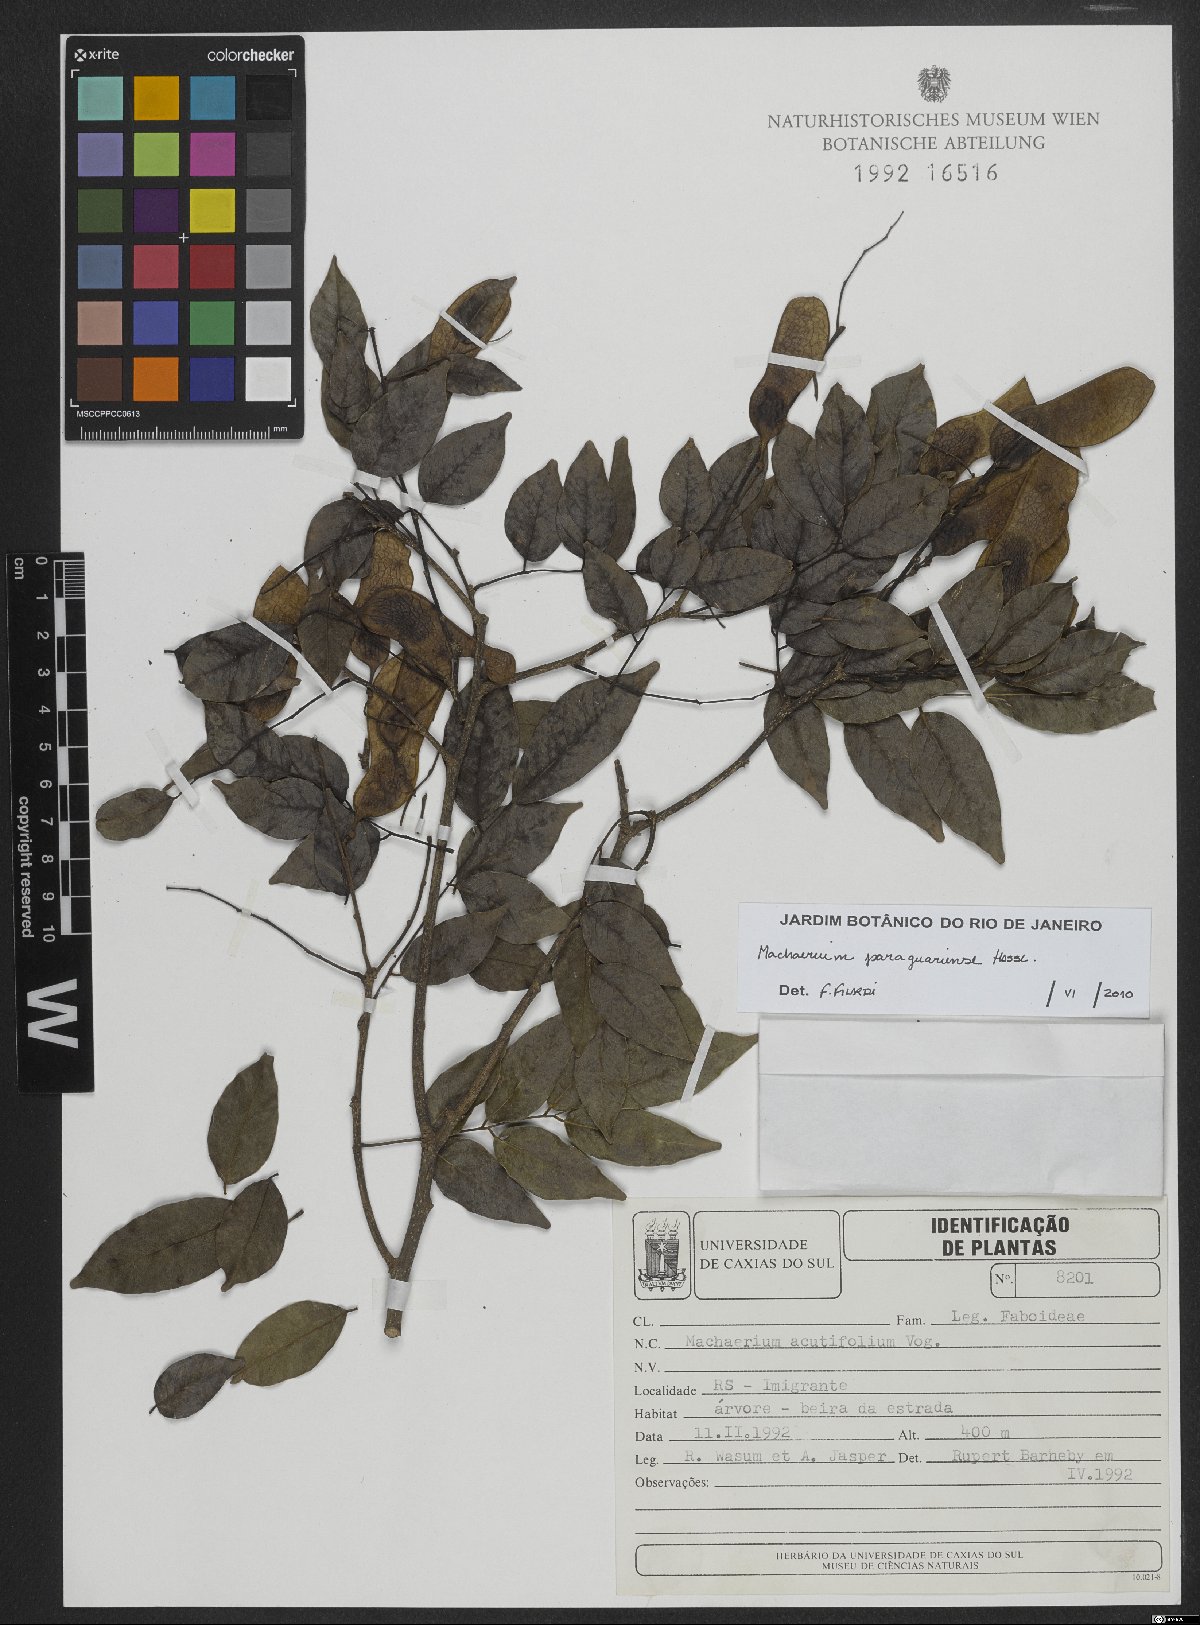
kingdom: Plantae
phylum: Tracheophyta
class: Magnoliopsida
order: Fabales
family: Fabaceae
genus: Machaerium
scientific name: Machaerium oblongifolium
